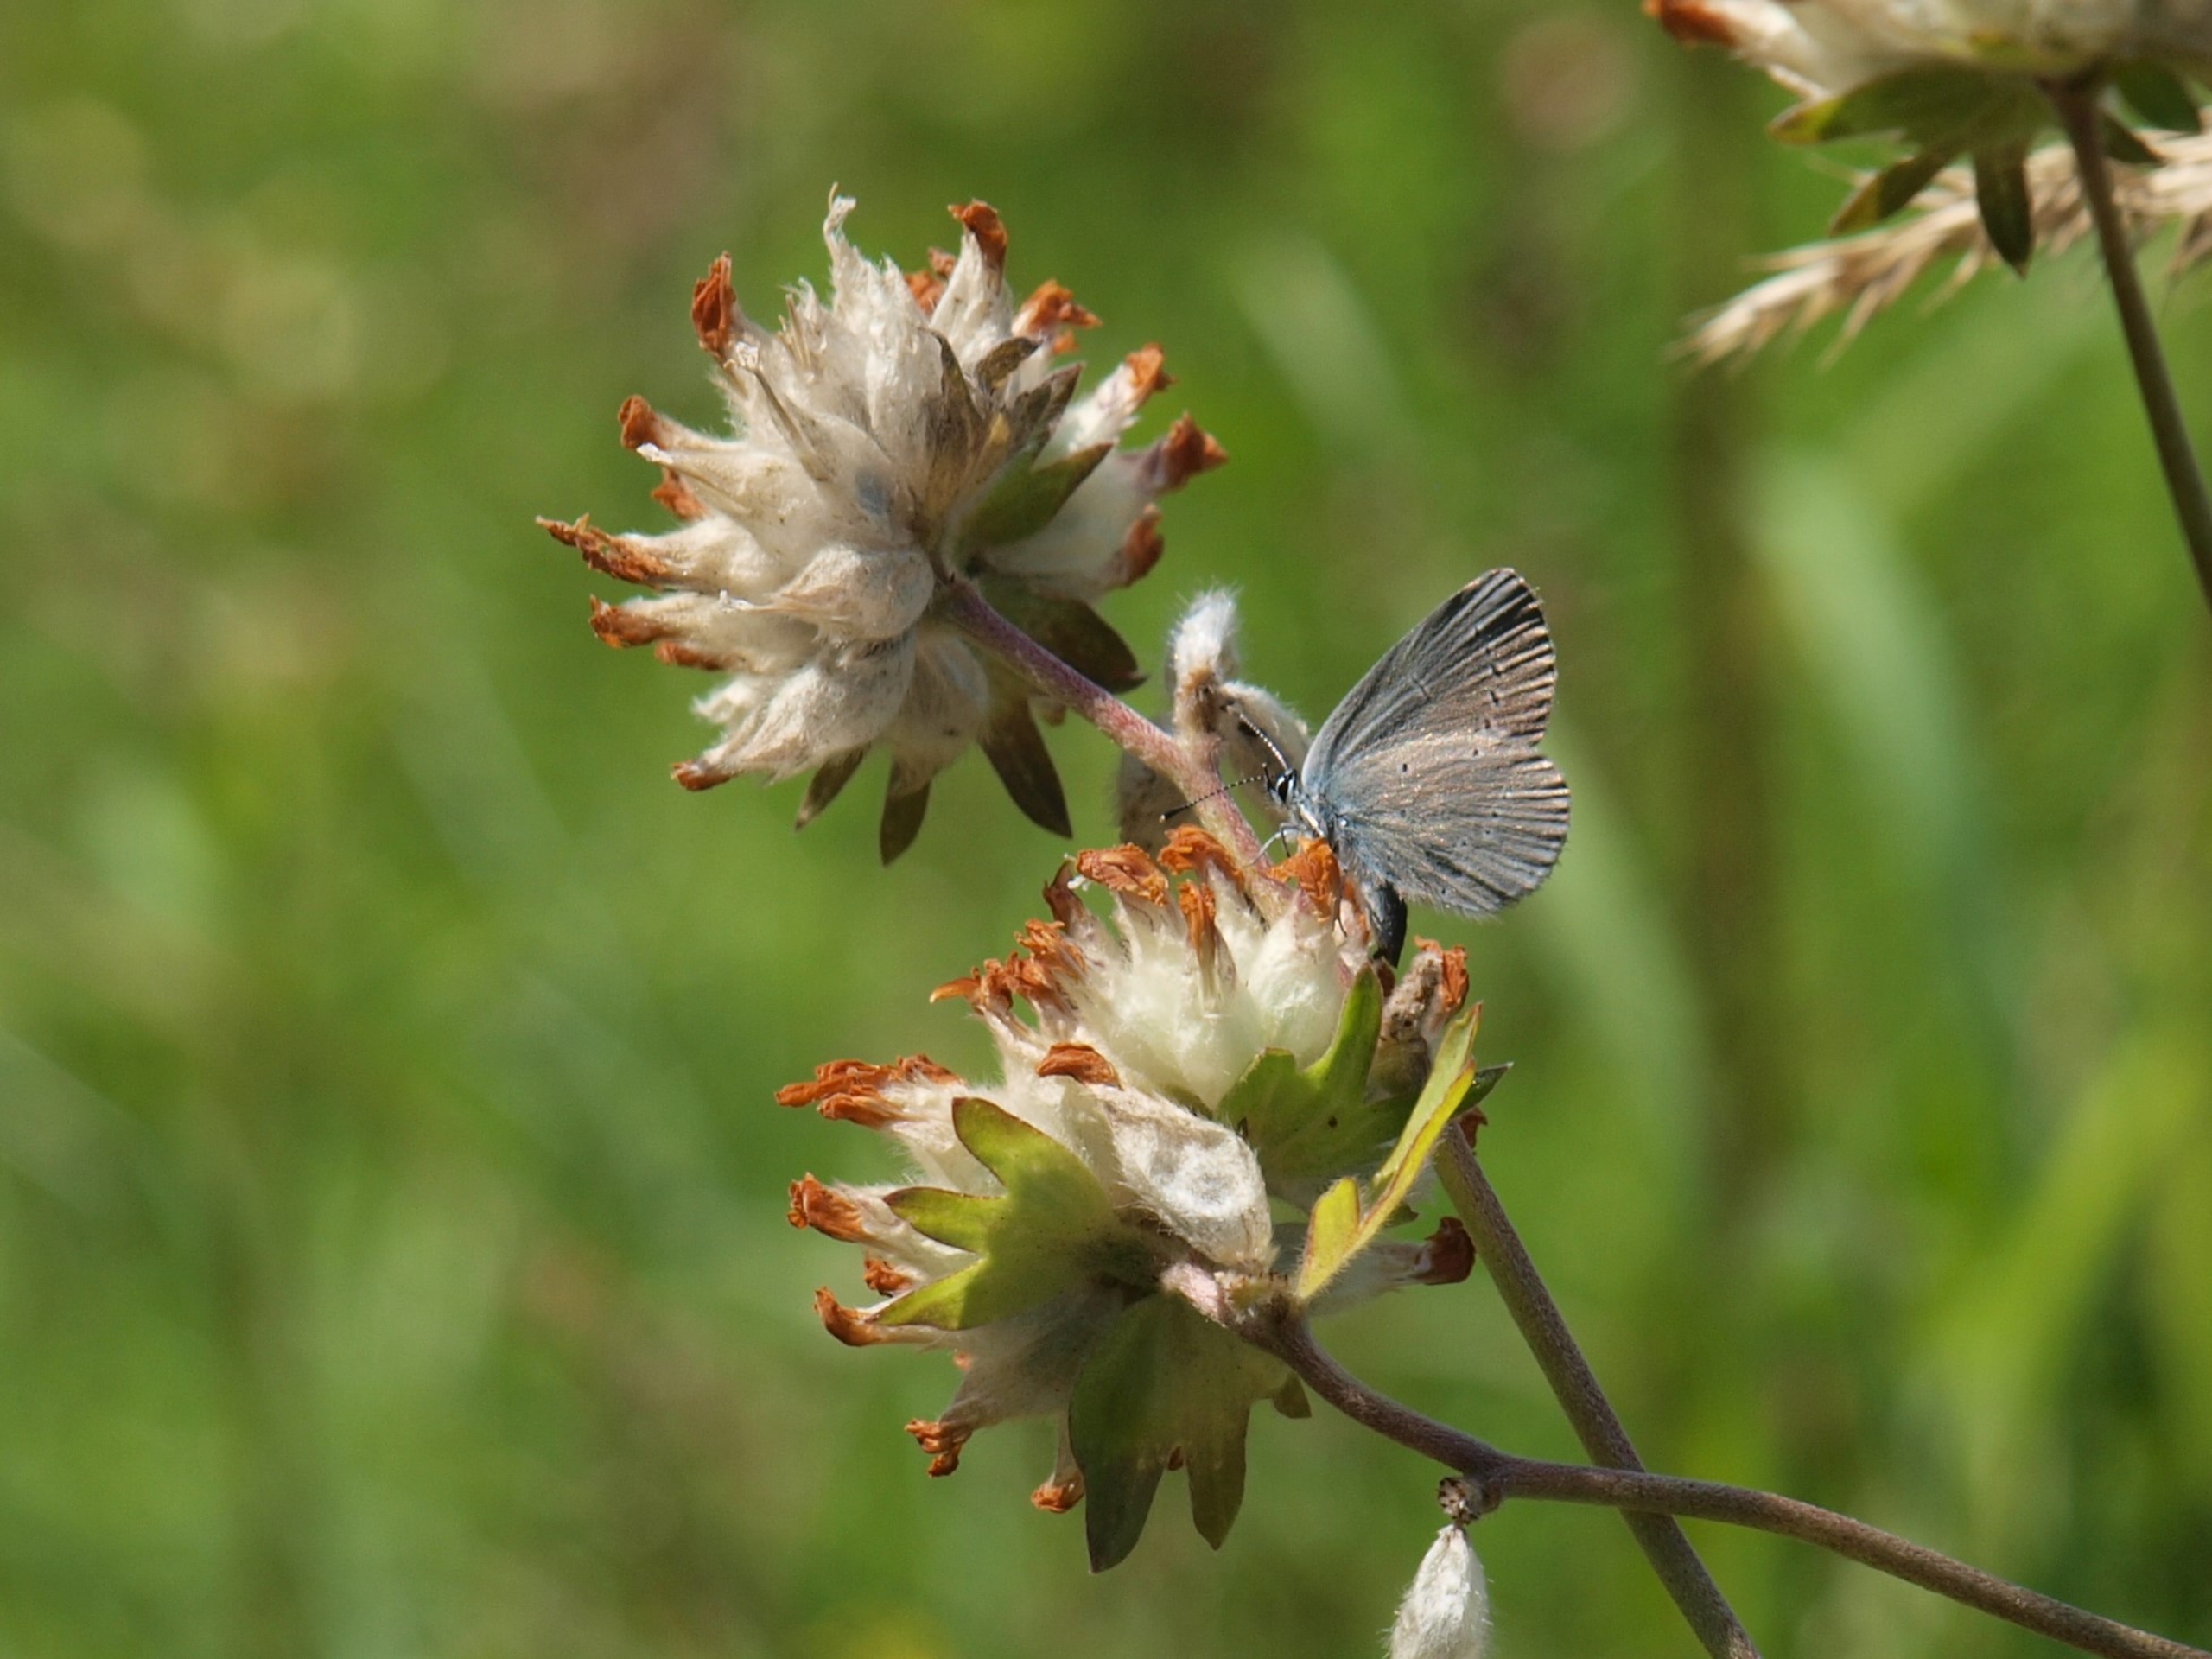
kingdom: Animalia
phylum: Arthropoda
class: Insecta
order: Lepidoptera
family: Lycaenidae
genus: Cupido
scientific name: Cupido minimus
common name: Dværgblåfugl
